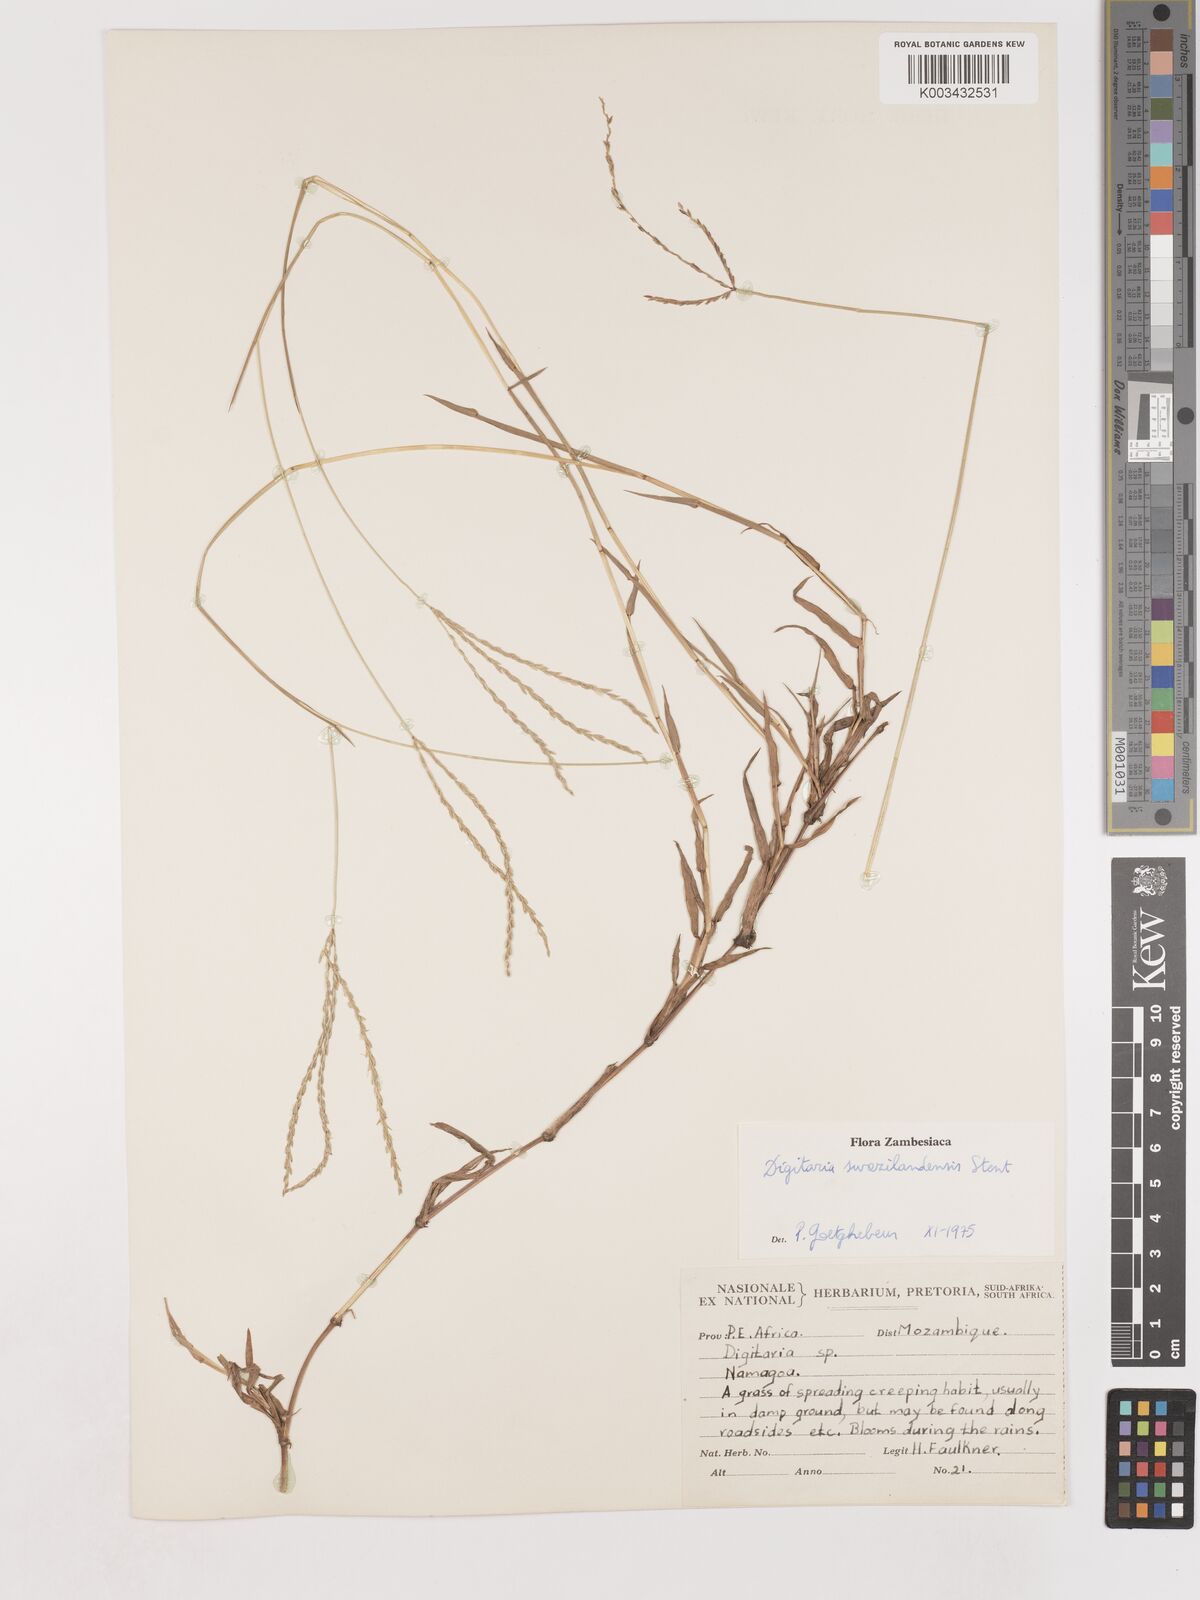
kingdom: Plantae
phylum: Tracheophyta
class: Liliopsida
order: Poales
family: Poaceae
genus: Digitaria
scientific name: Digitaria didactyla
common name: Blue couch
